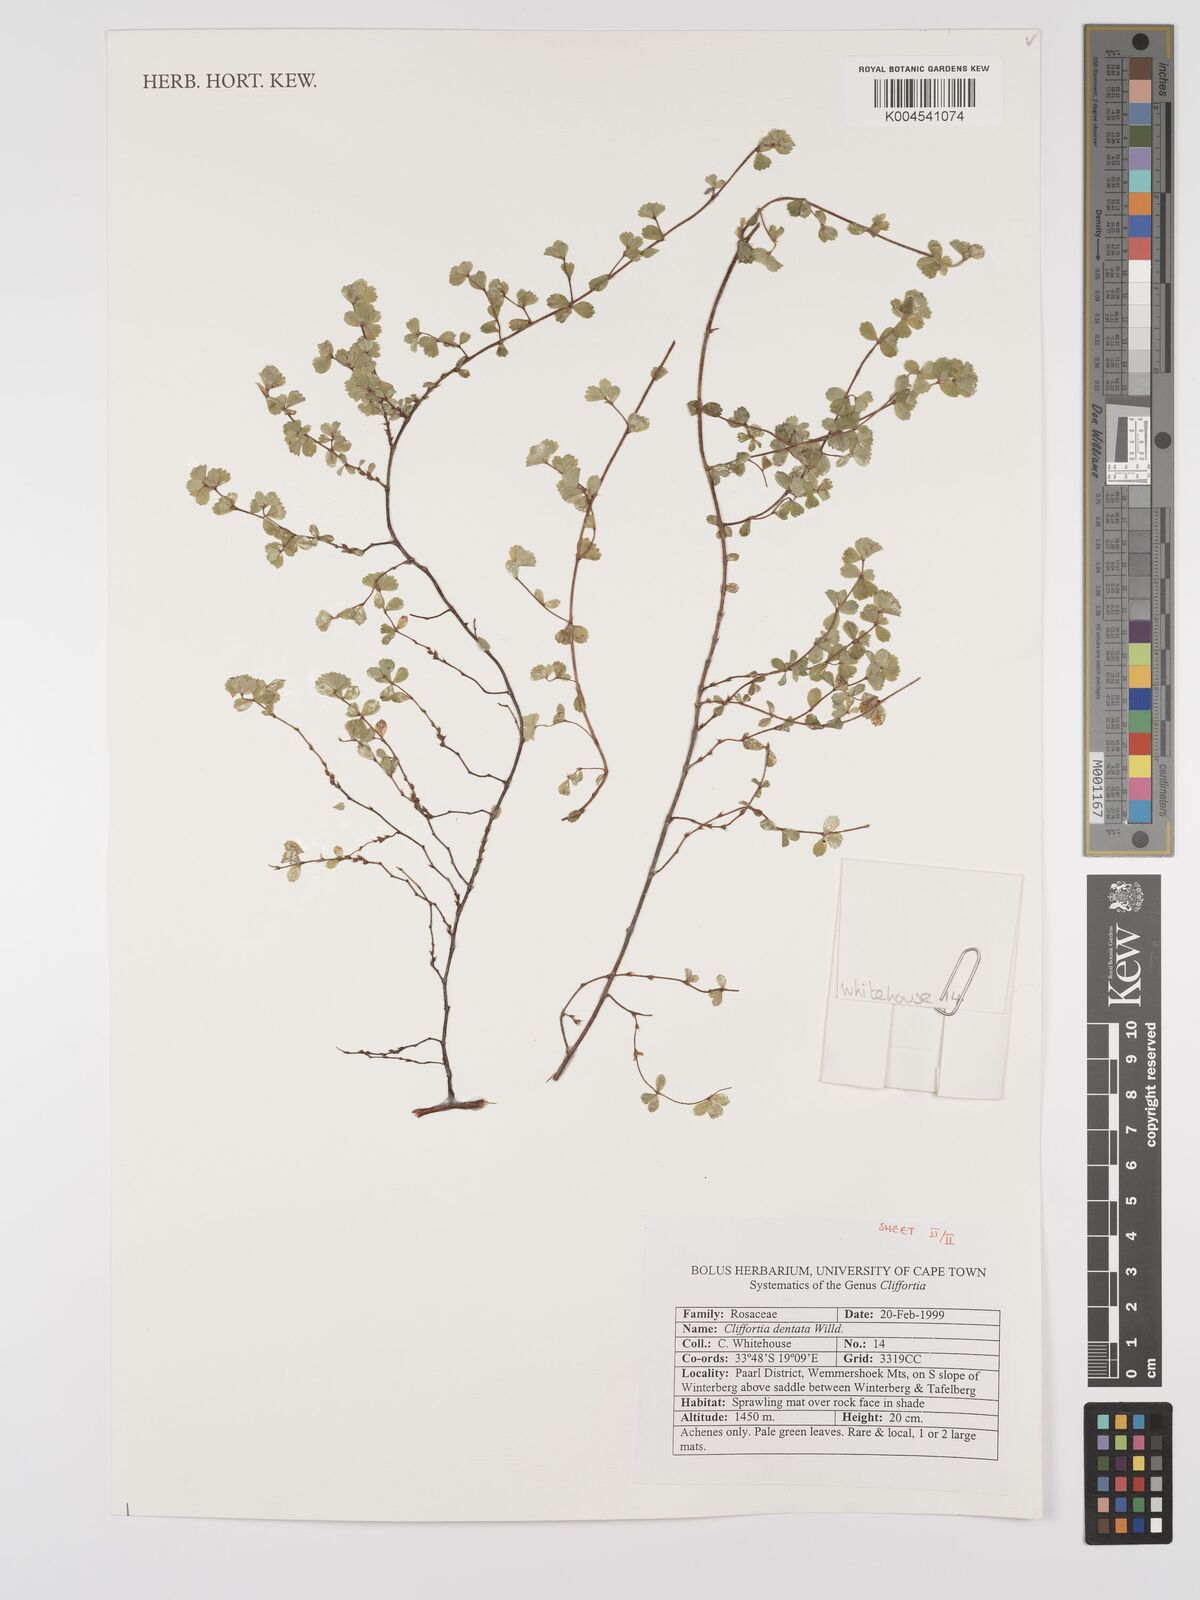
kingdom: Plantae
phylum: Tracheophyta
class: Magnoliopsida
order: Rosales
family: Rosaceae
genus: Cliffortia
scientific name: Cliffortia
